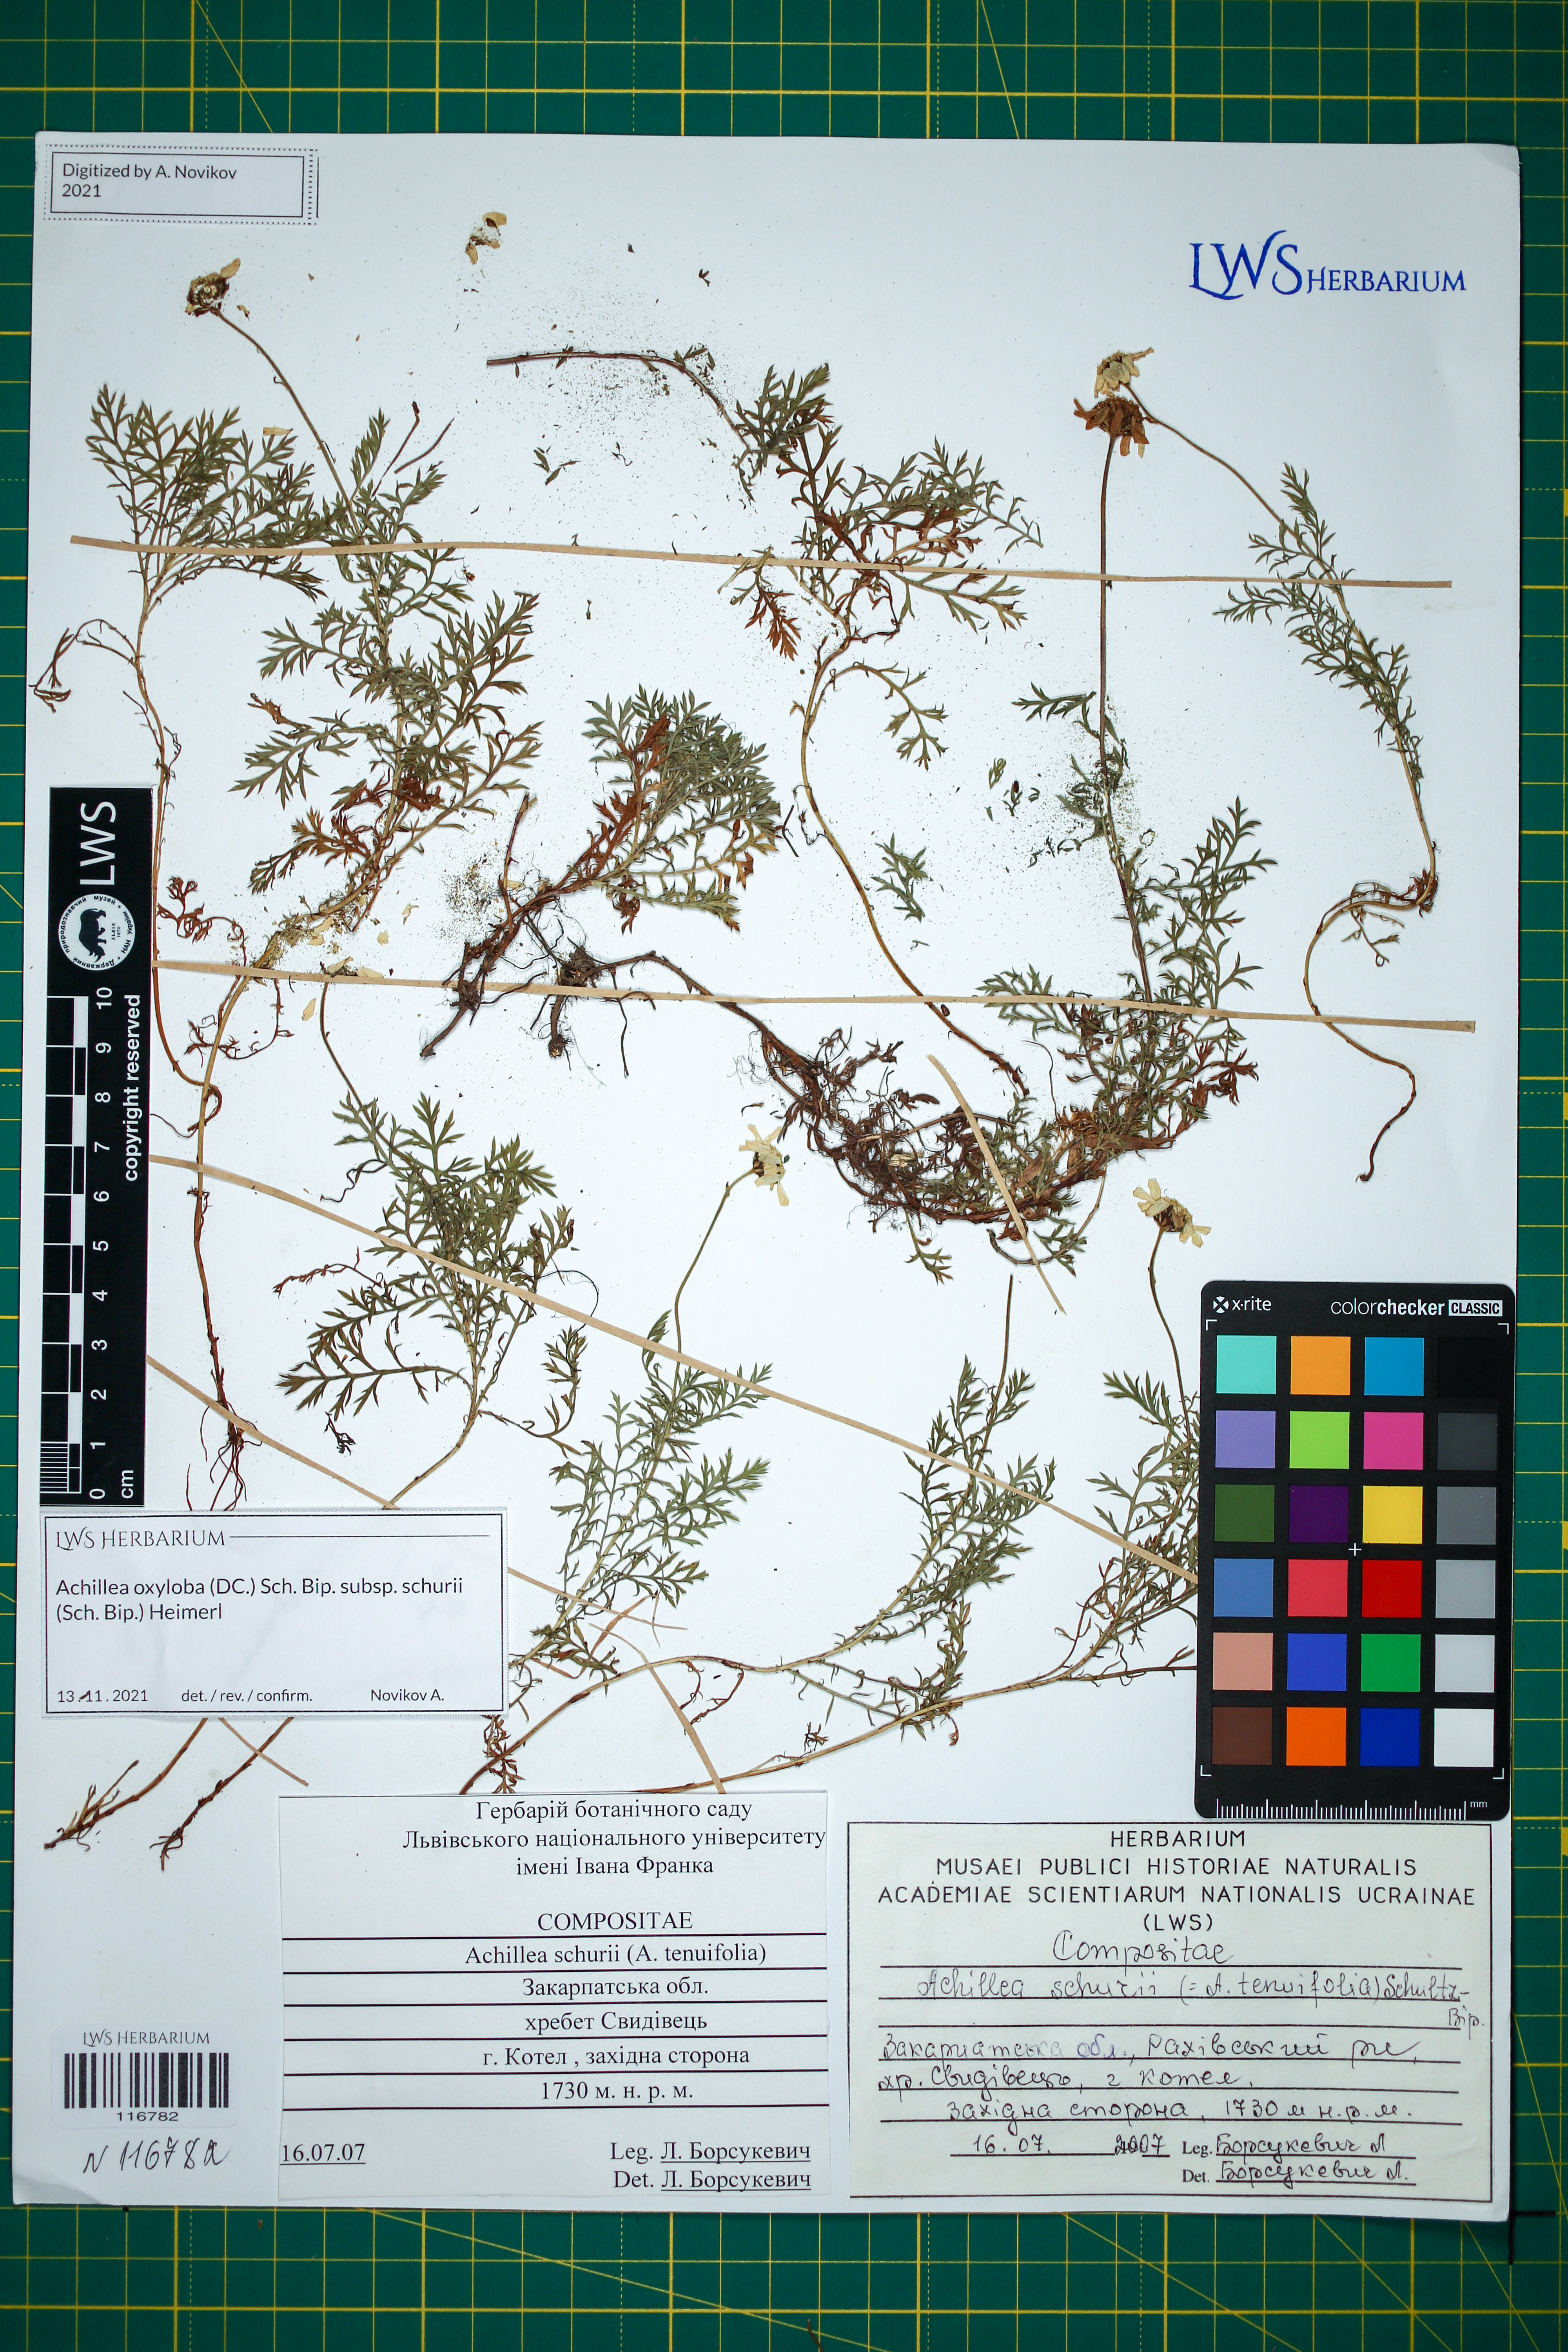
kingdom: Plantae
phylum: Tracheophyta
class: Magnoliopsida
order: Asterales
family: Asteraceae
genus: Achillea
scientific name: Achillea oxyloba
